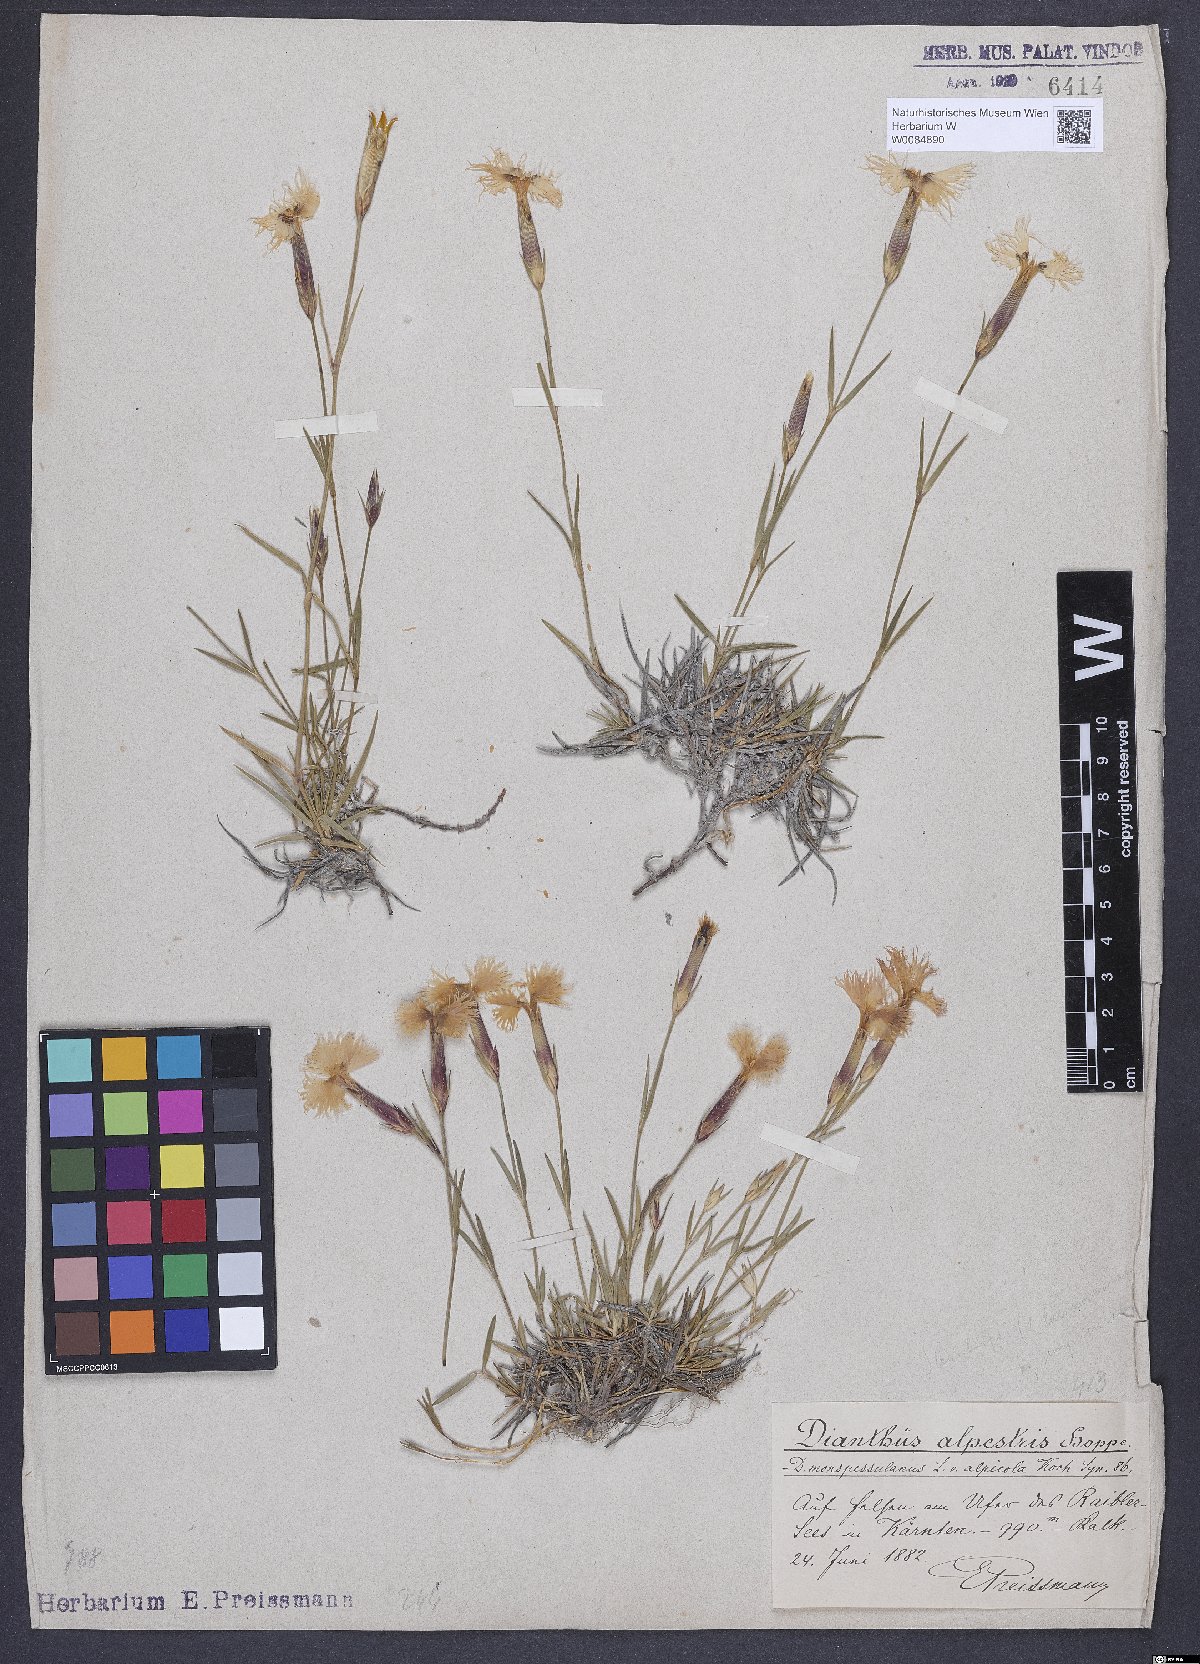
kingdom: Plantae
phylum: Tracheophyta
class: Magnoliopsida
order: Caryophyllales
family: Caryophyllaceae
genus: Dianthus
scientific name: Dianthus hyssopifolius
